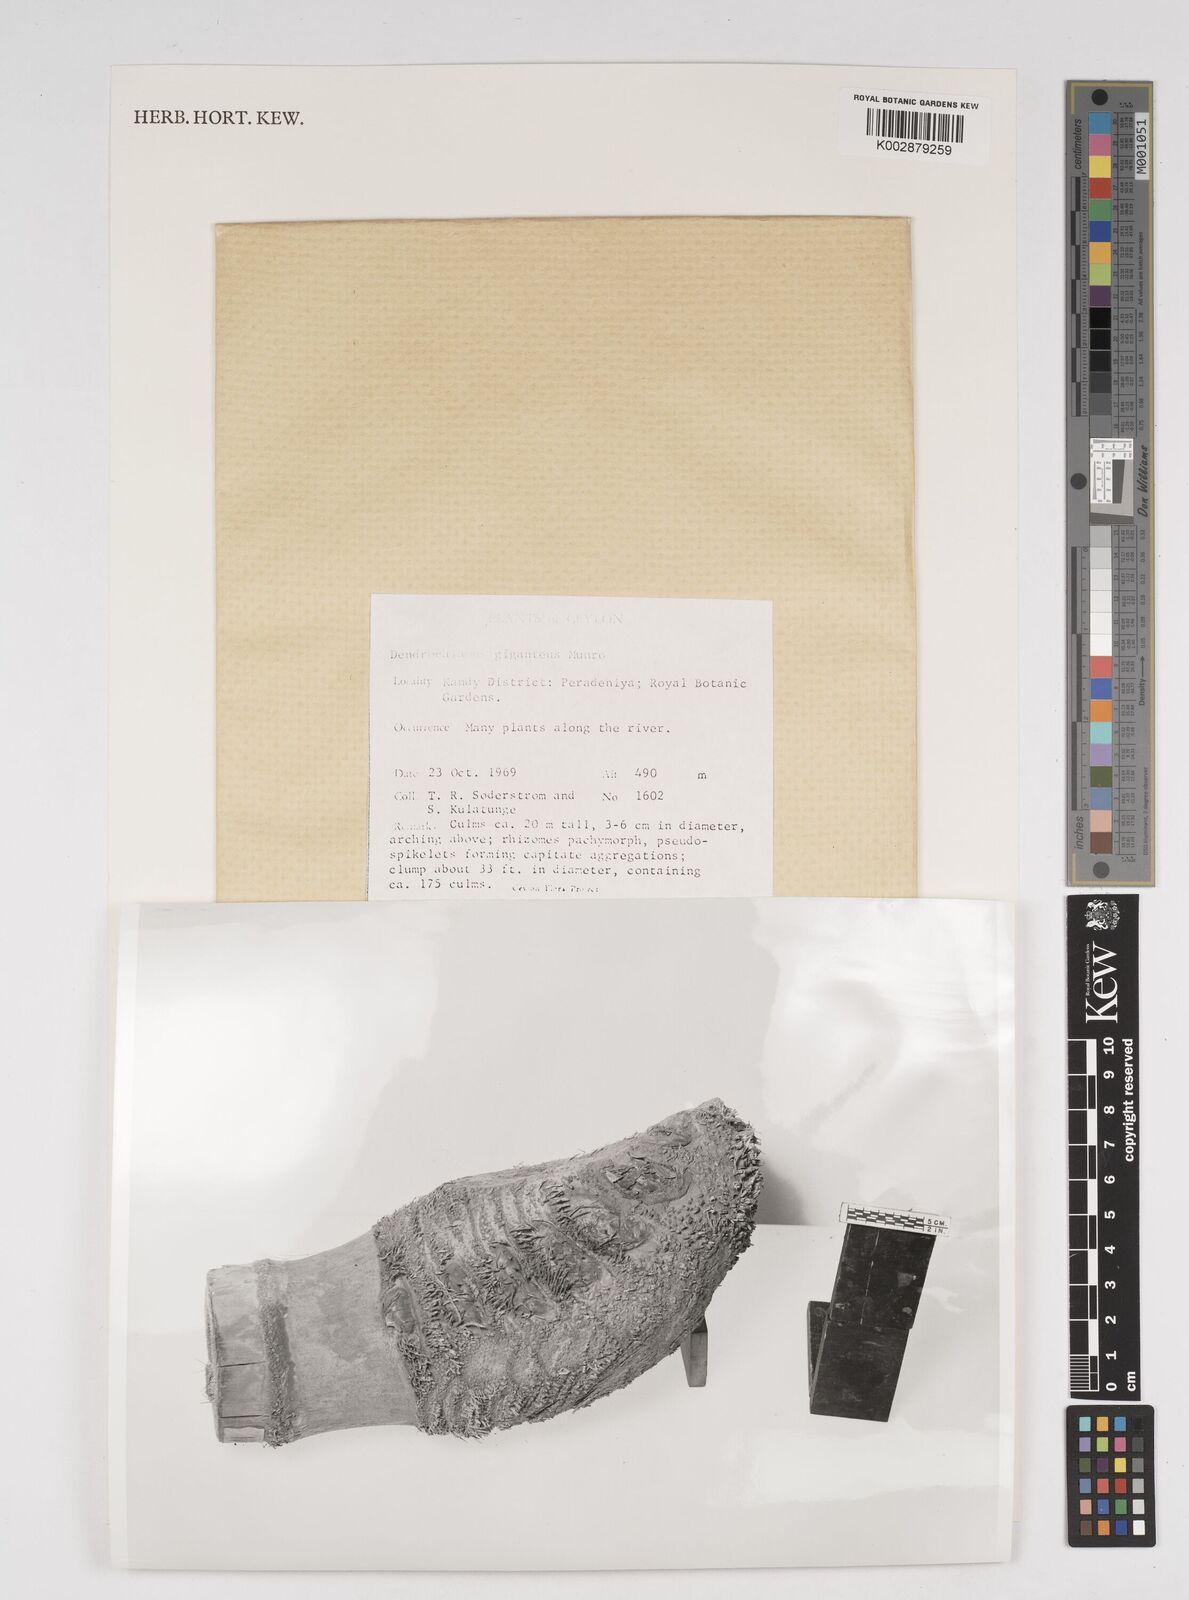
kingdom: Plantae
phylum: Tracheophyta
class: Liliopsida
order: Poales
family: Poaceae
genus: Dendrocalamus
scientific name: Dendrocalamus giganteus
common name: Giant bamboo
